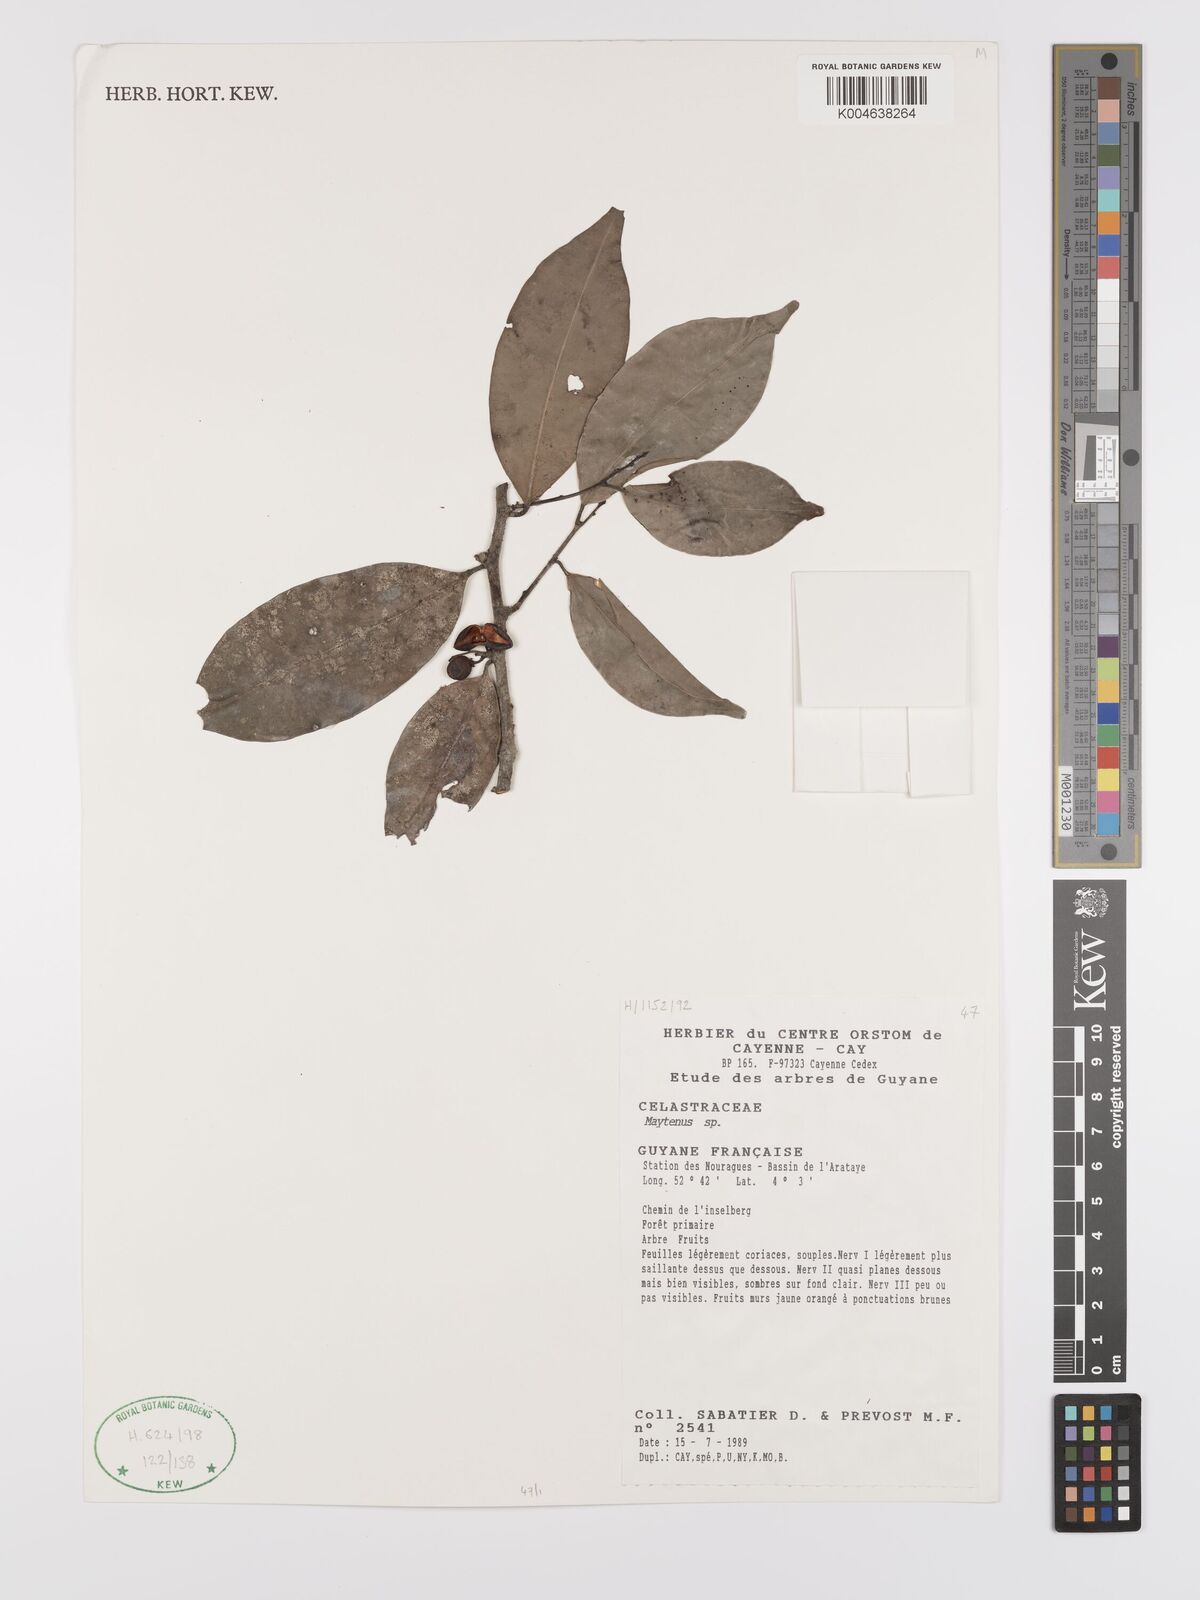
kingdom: Plantae
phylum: Tracheophyta
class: Magnoliopsida
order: Celastrales
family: Celastraceae
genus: Maytenus
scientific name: Maytenus
